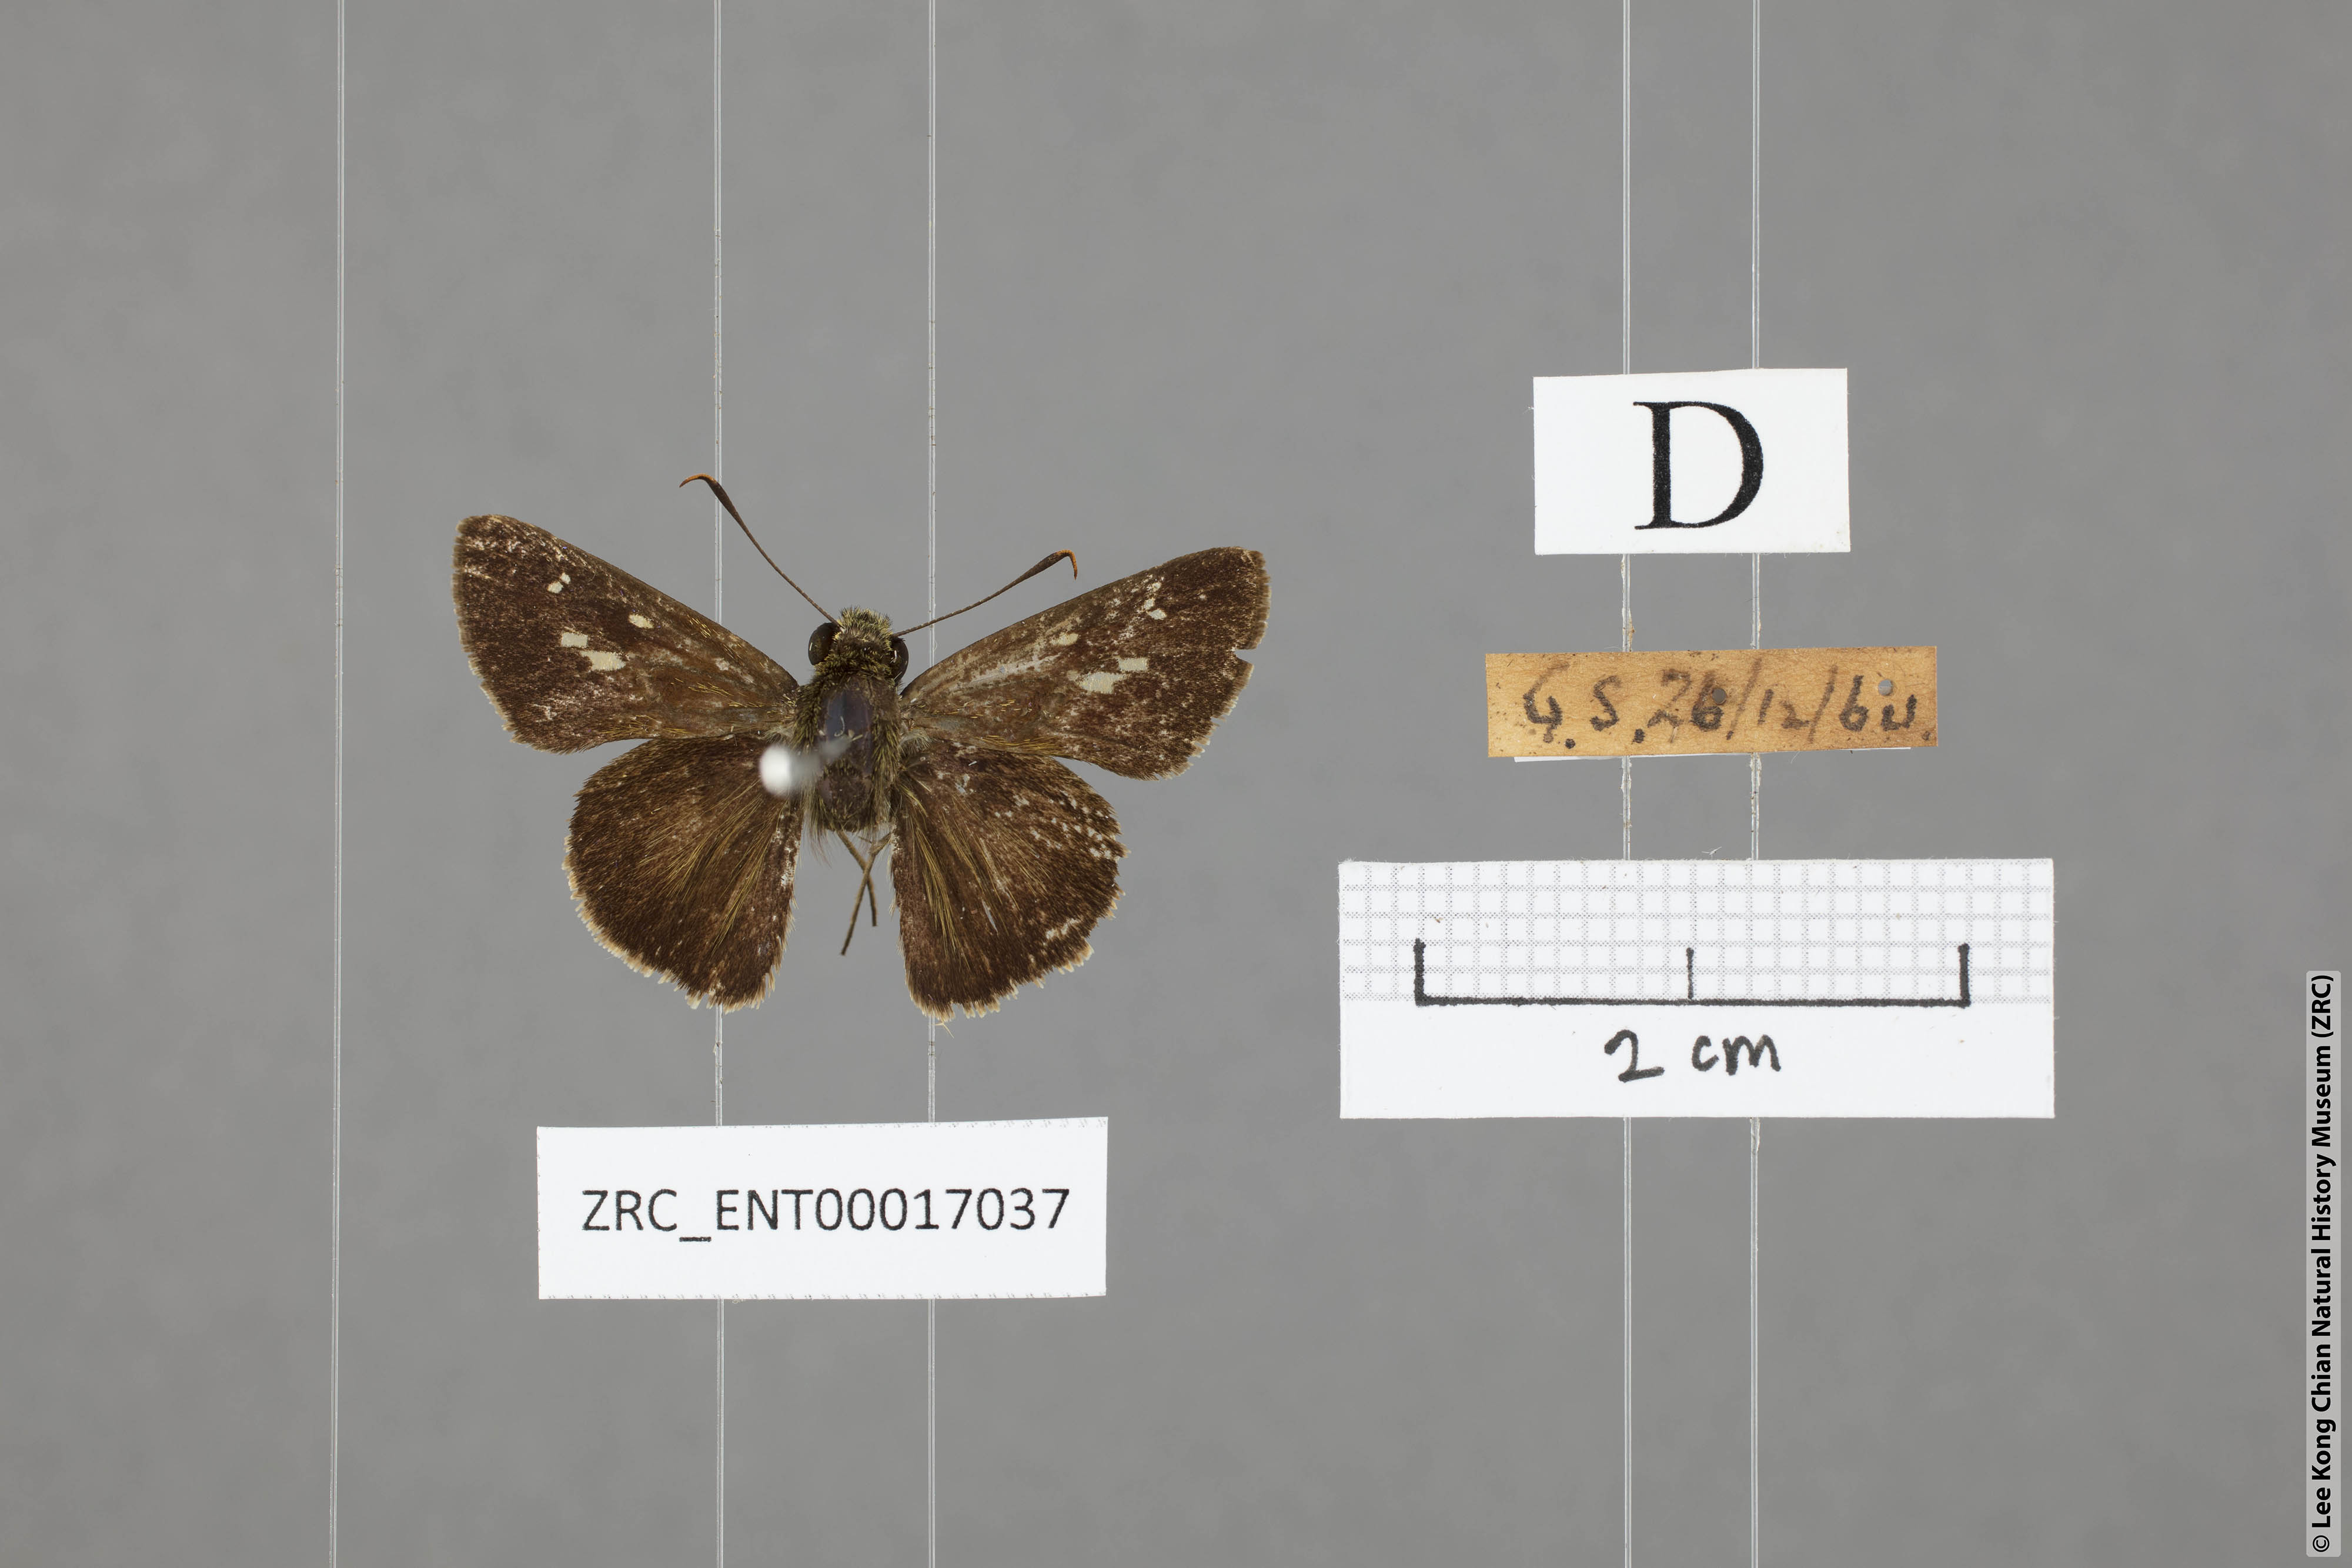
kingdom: Animalia
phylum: Arthropoda
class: Insecta
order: Lepidoptera
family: Hesperiidae
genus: Halpe
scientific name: Halpe pelethronix
